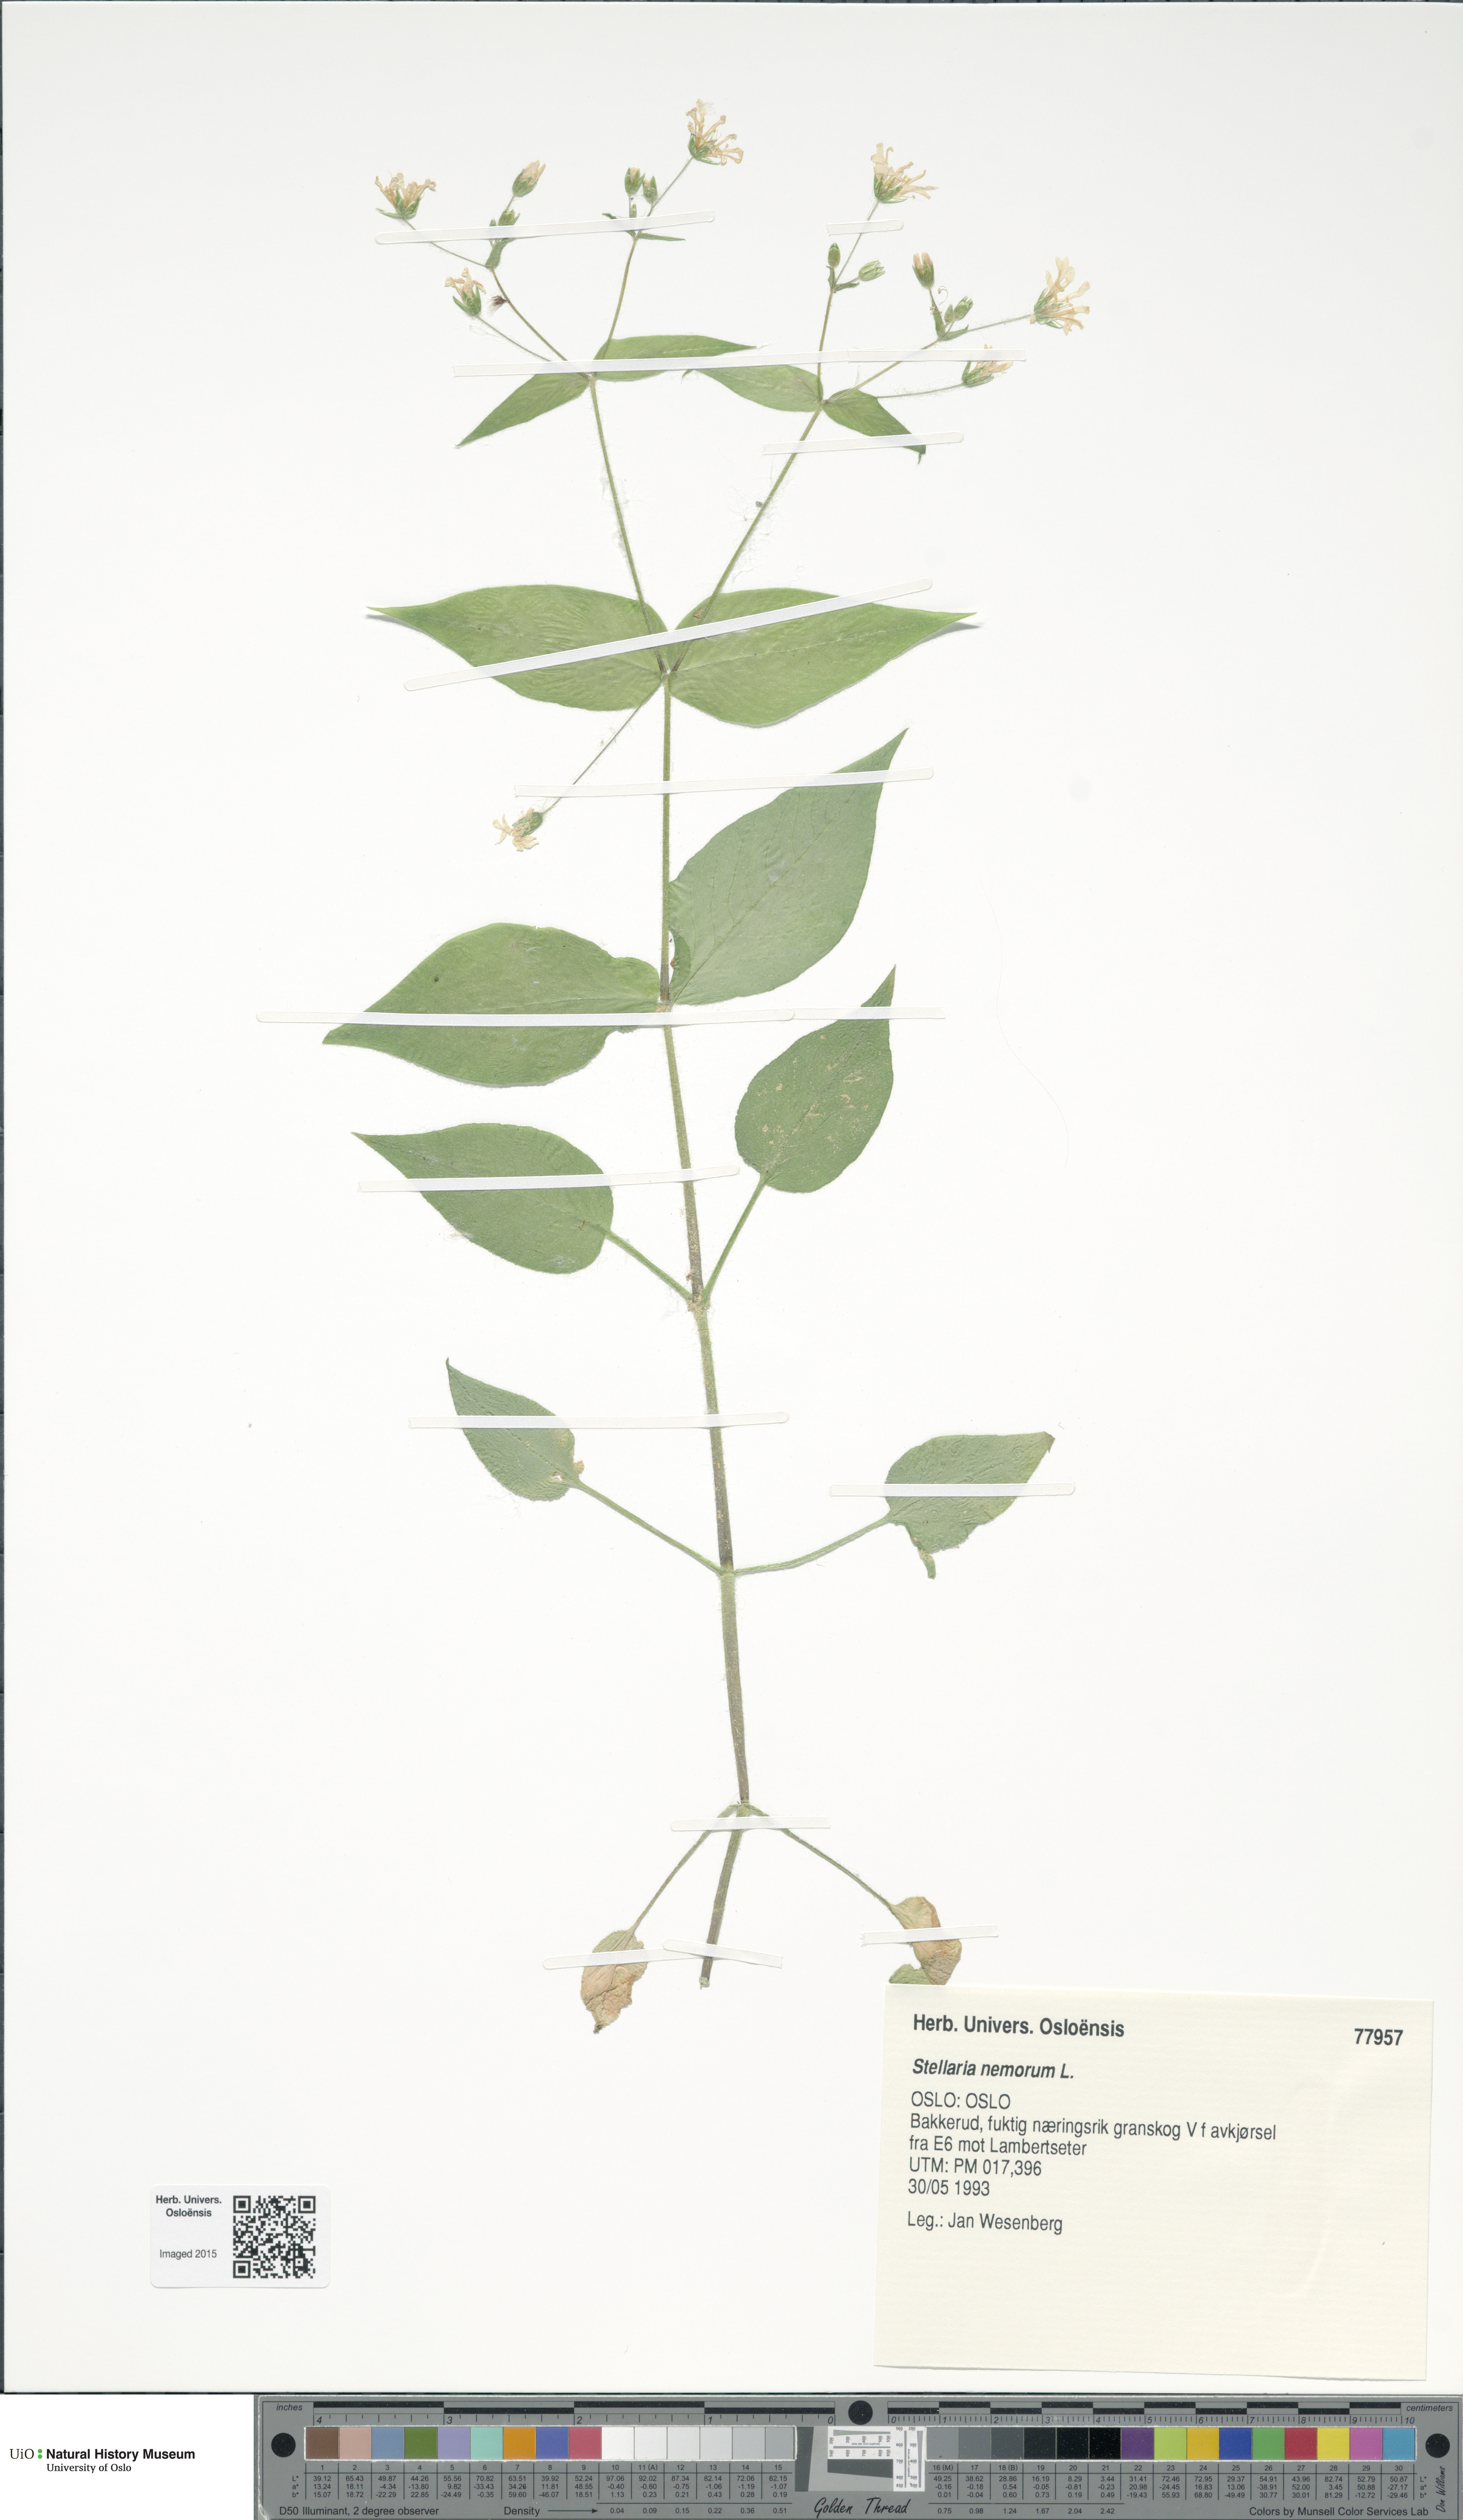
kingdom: Plantae
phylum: Tracheophyta
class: Magnoliopsida
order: Caryophyllales
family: Caryophyllaceae
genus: Stellaria
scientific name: Stellaria nemorum
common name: Wood stitchwort
